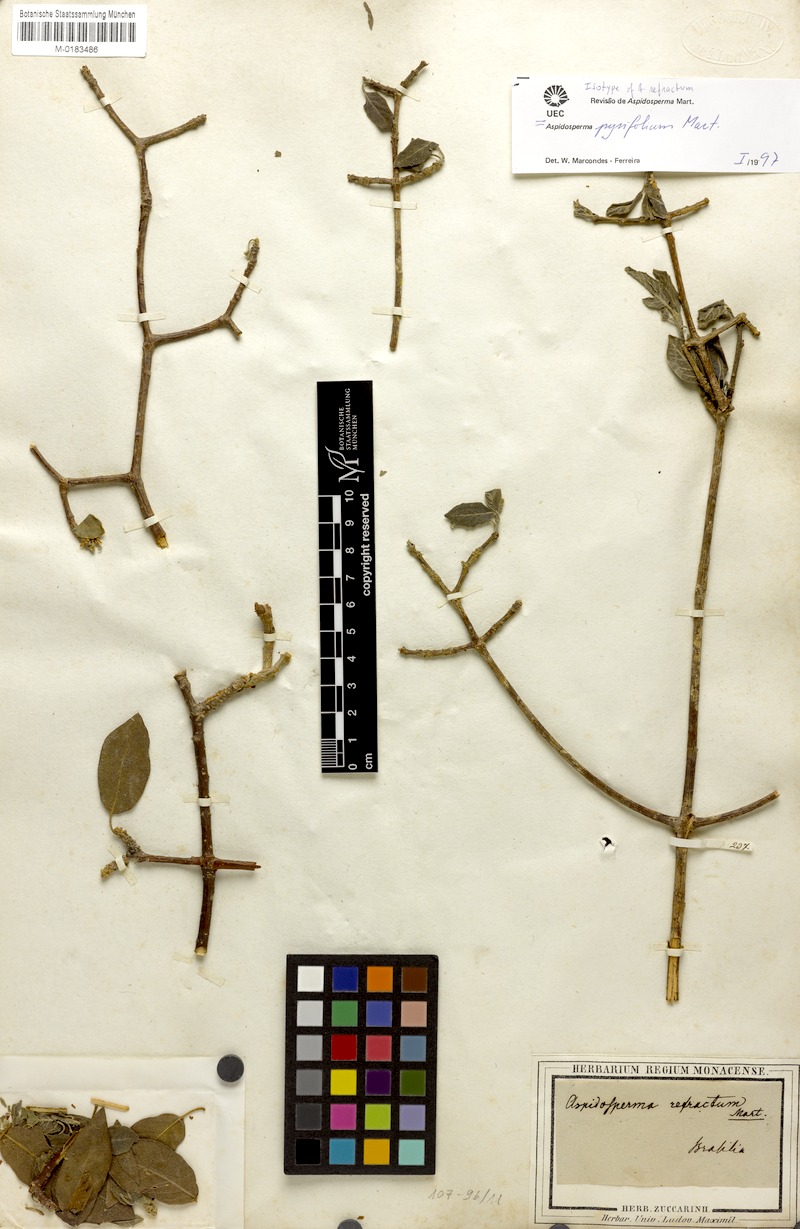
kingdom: Plantae
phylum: Tracheophyta
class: Magnoliopsida
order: Gentianales
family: Apocynaceae
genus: Aspidosperma
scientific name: Aspidosperma pyrifolium
